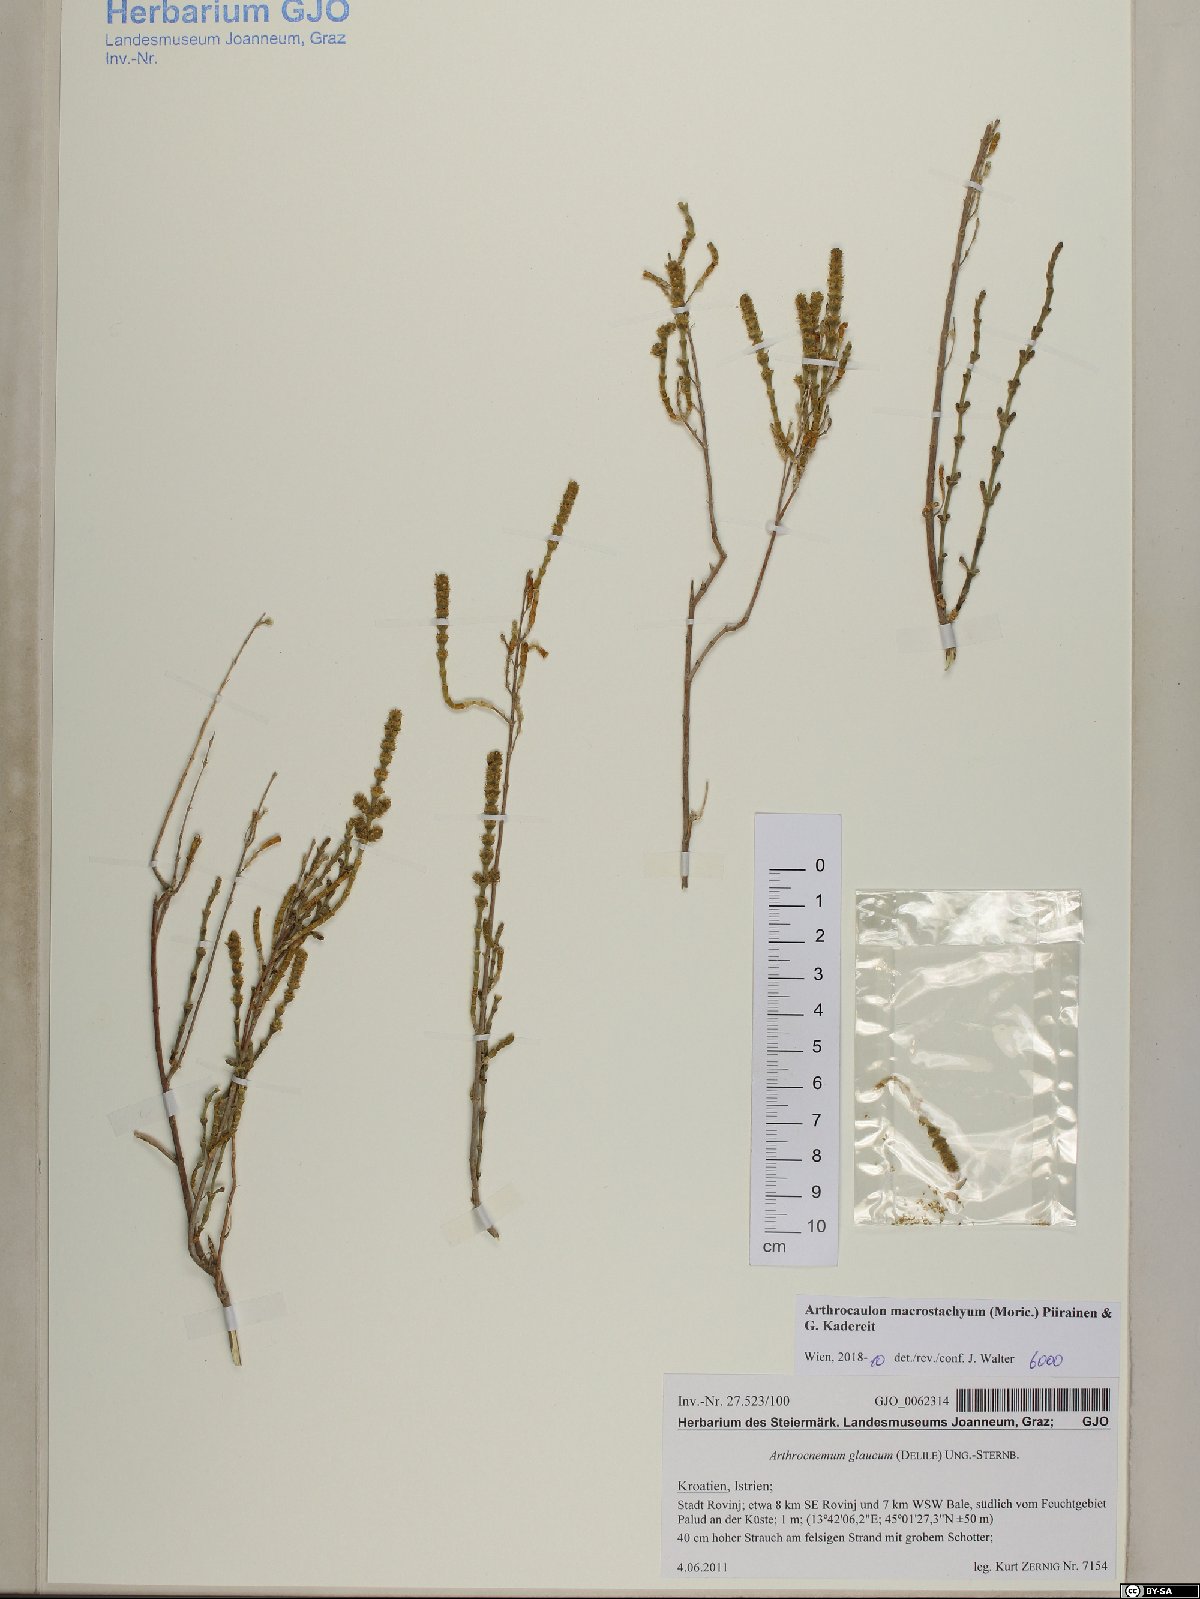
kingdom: Plantae
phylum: Tracheophyta
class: Magnoliopsida
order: Caryophyllales
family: Amaranthaceae
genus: Arthrocaulon
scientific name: Arthrocaulon macrostachyum
